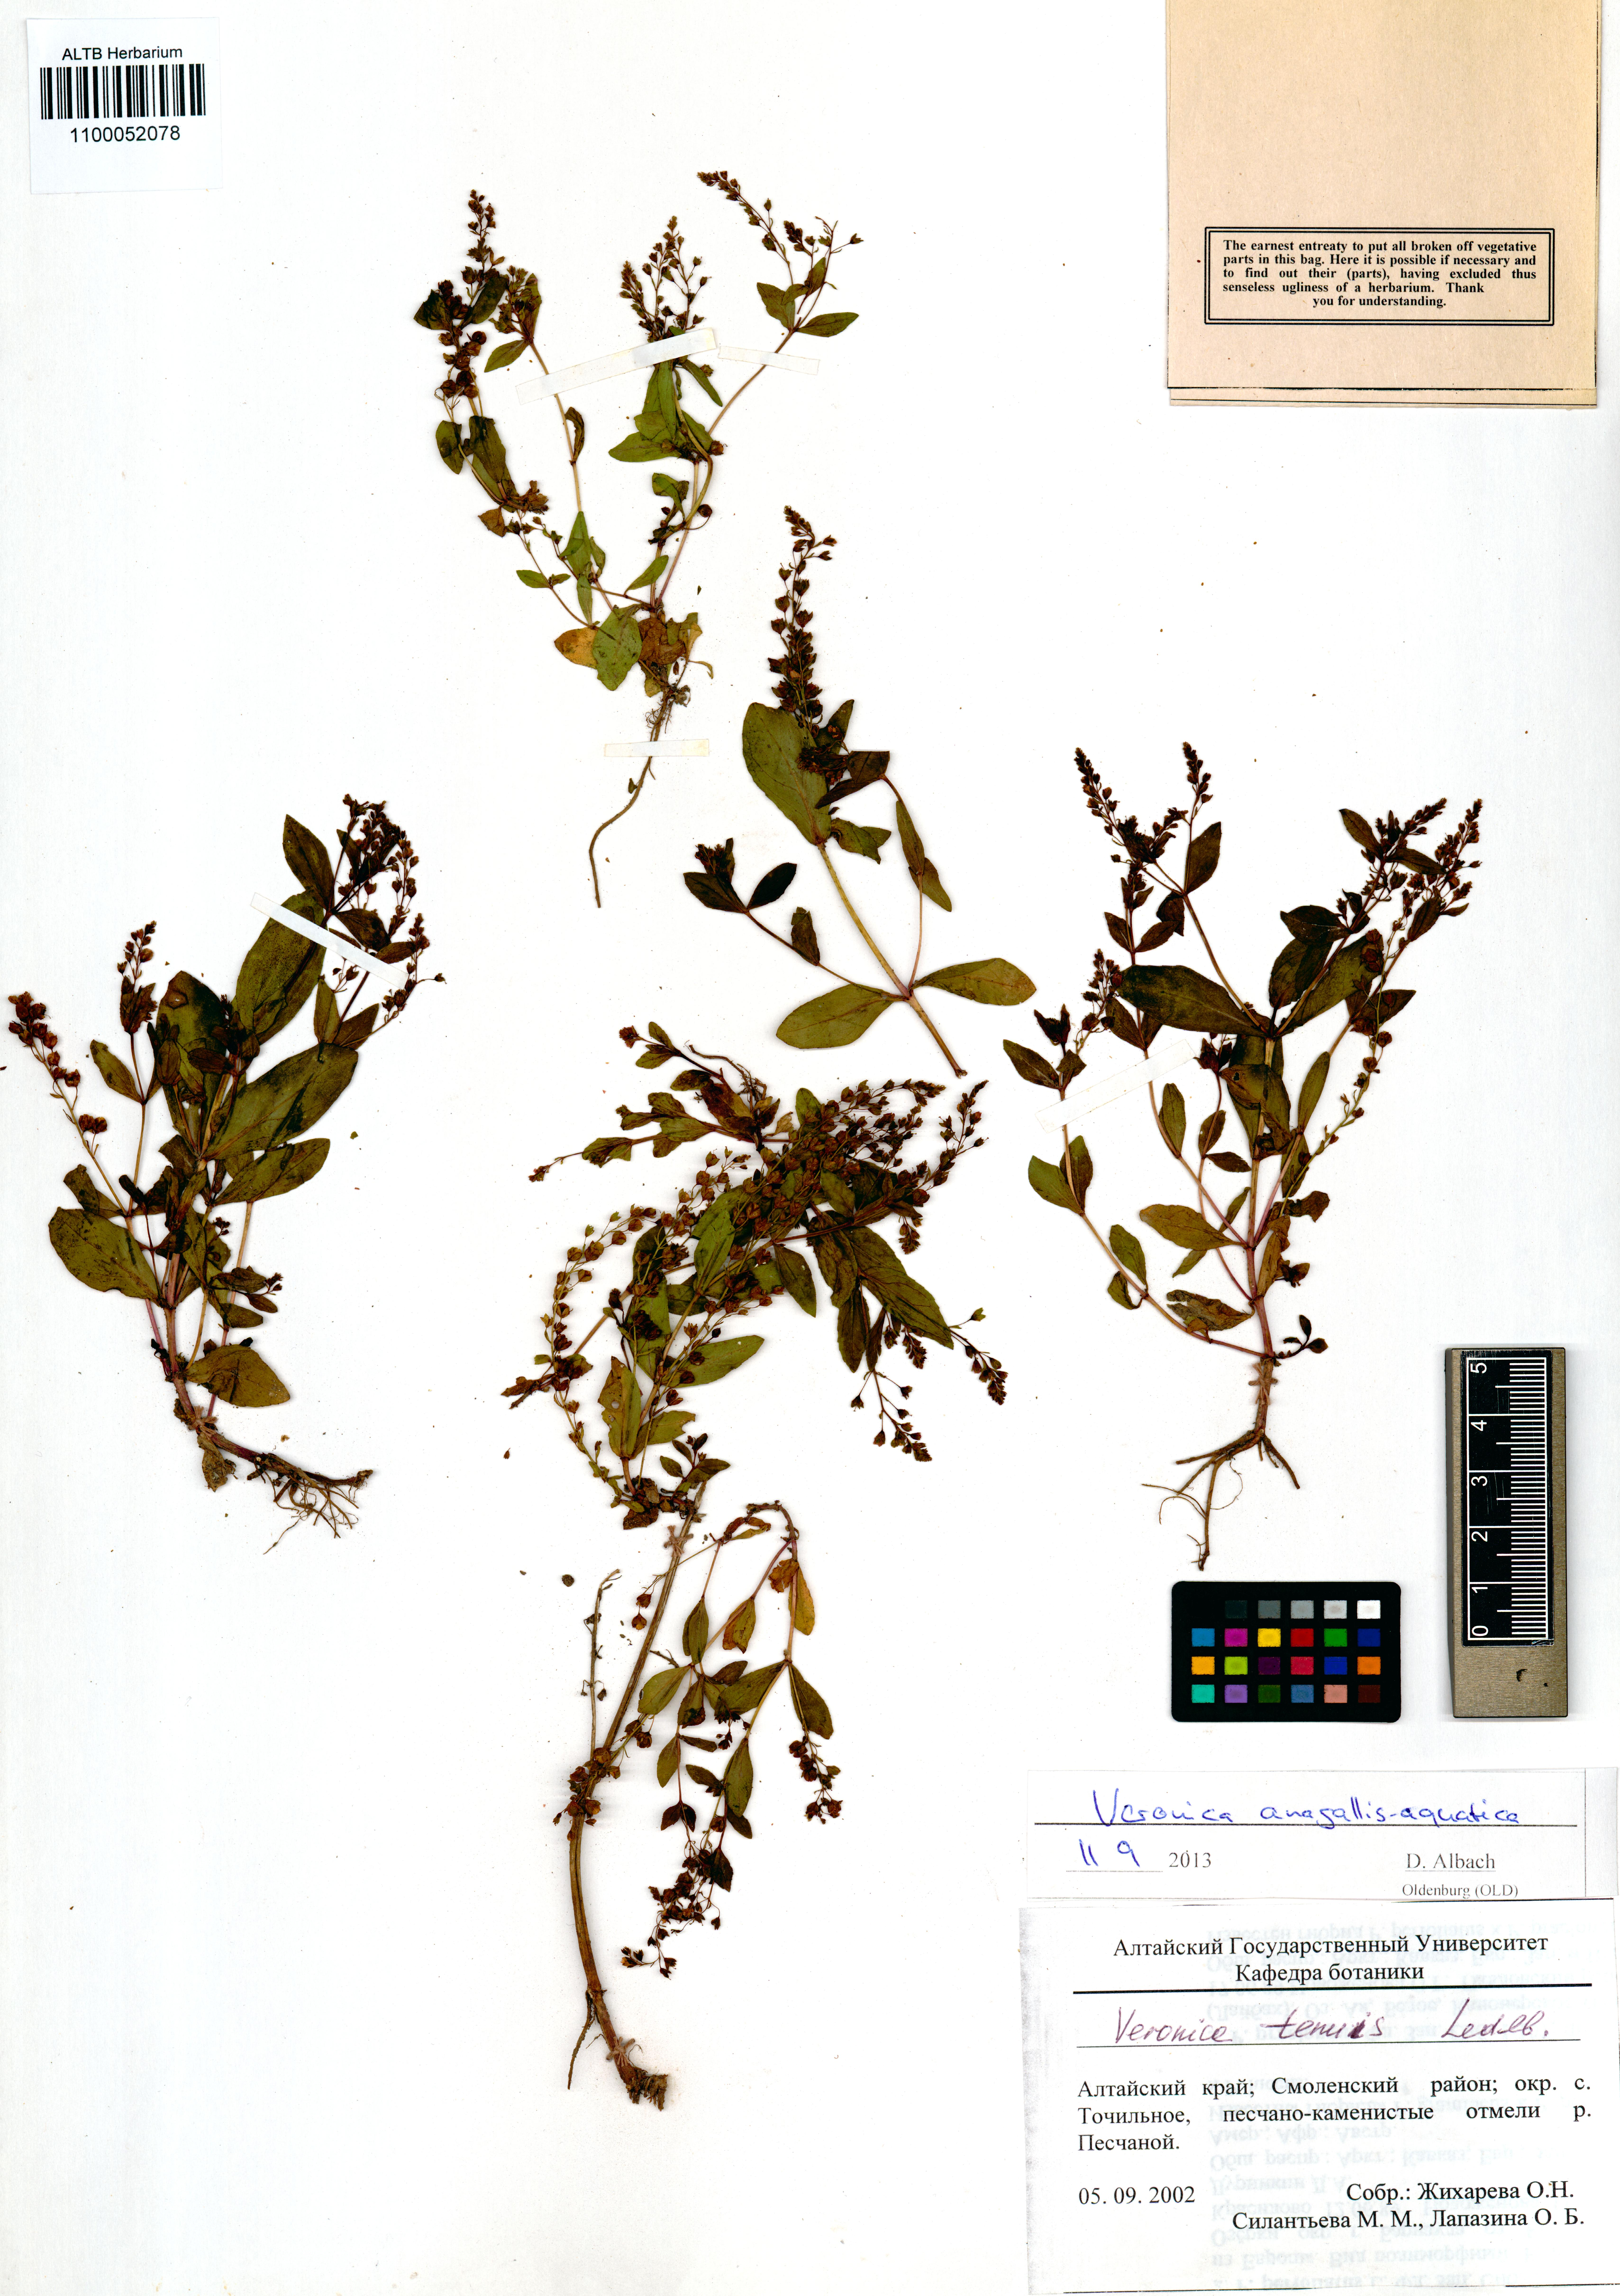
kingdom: Plantae
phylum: Tracheophyta
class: Magnoliopsida
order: Lamiales
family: Plantaginaceae
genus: Veronica
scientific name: Veronica anagallis-aquatica
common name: Water speedwell
